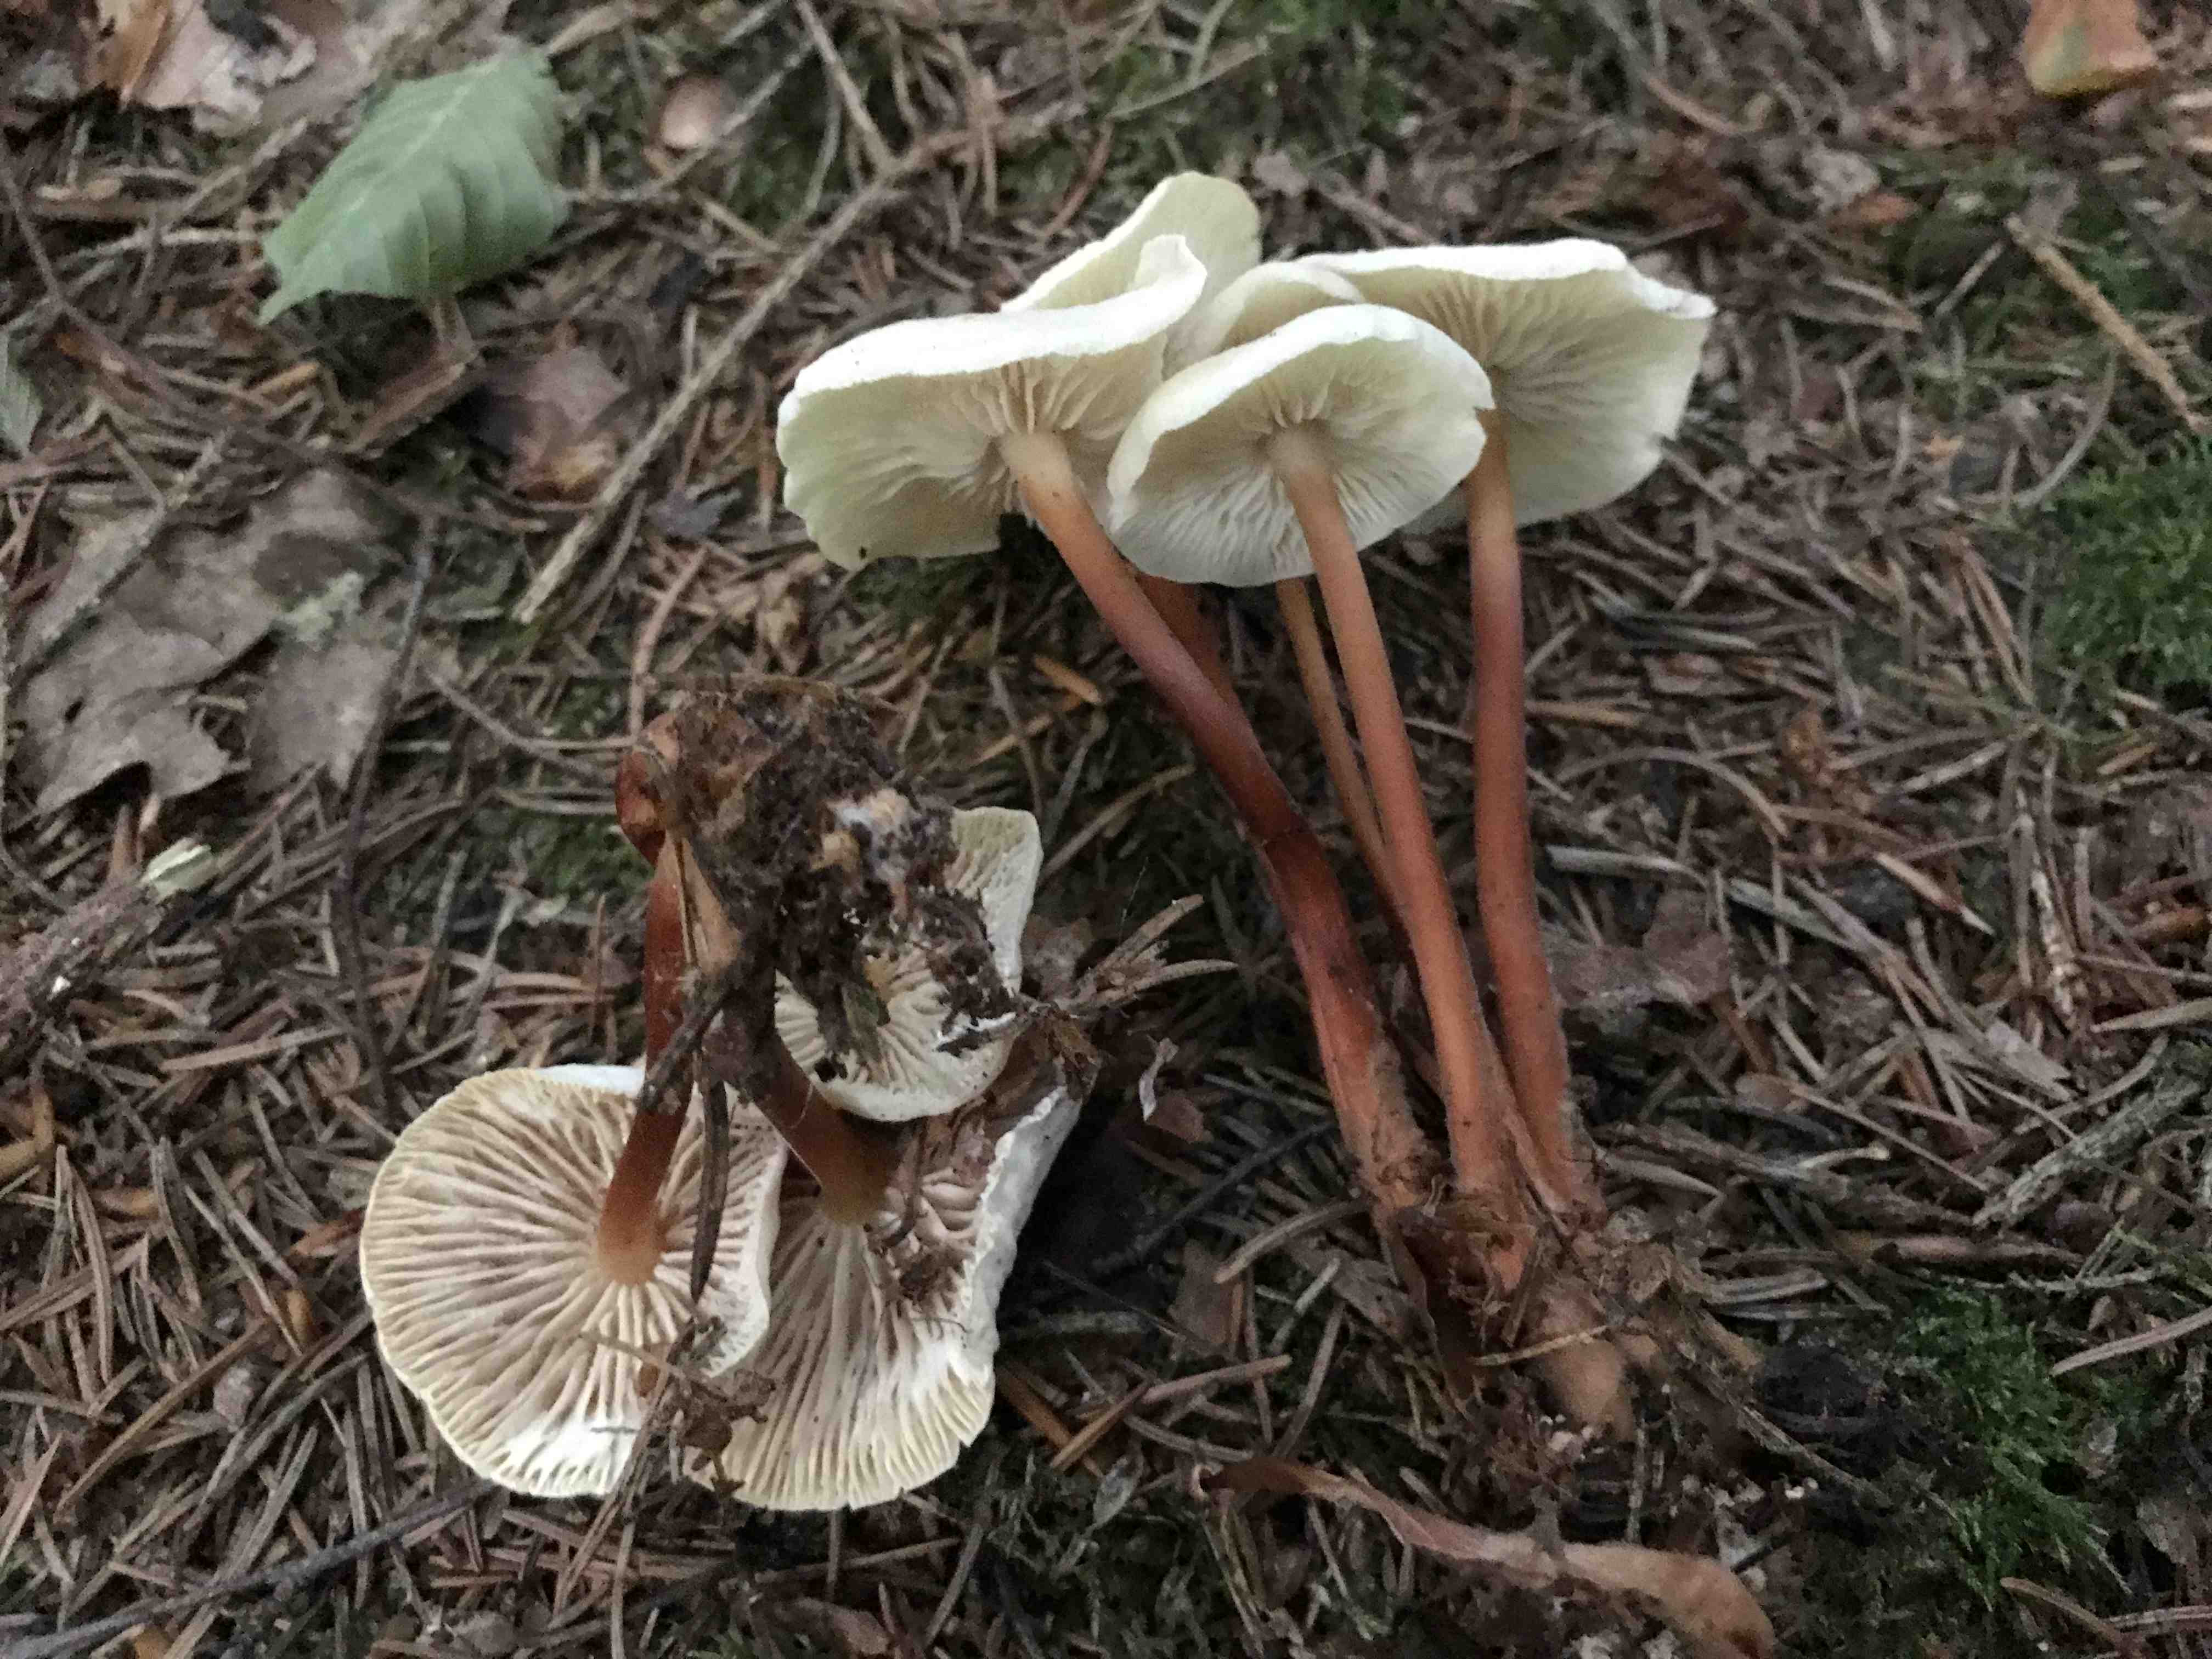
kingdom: Fungi
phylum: Basidiomycota
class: Agaricomycetes
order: Agaricales
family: Omphalotaceae
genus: Gymnopus
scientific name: Gymnopus erythropus
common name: rødstokket fladhat
